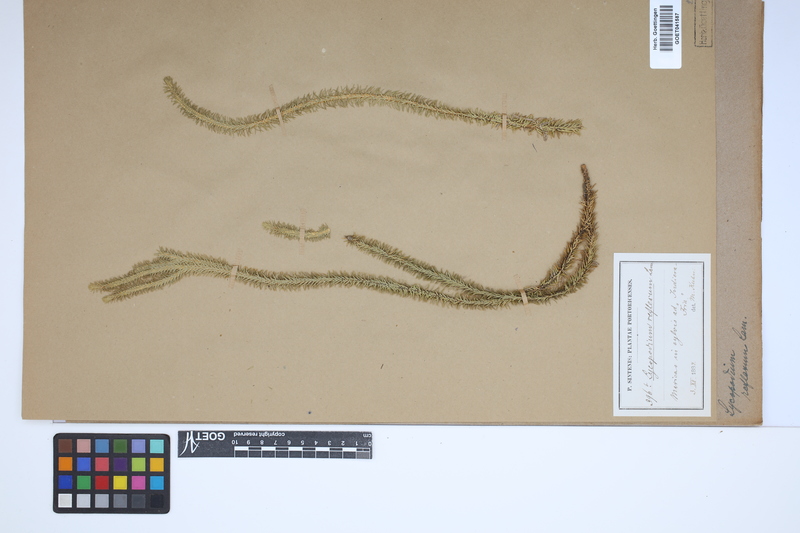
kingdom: Plantae
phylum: Tracheophyta
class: Lycopodiopsida
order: Lycopodiales
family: Lycopodiaceae
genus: Huperzia
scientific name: Huperzia lucidula
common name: Shining clubmoss
